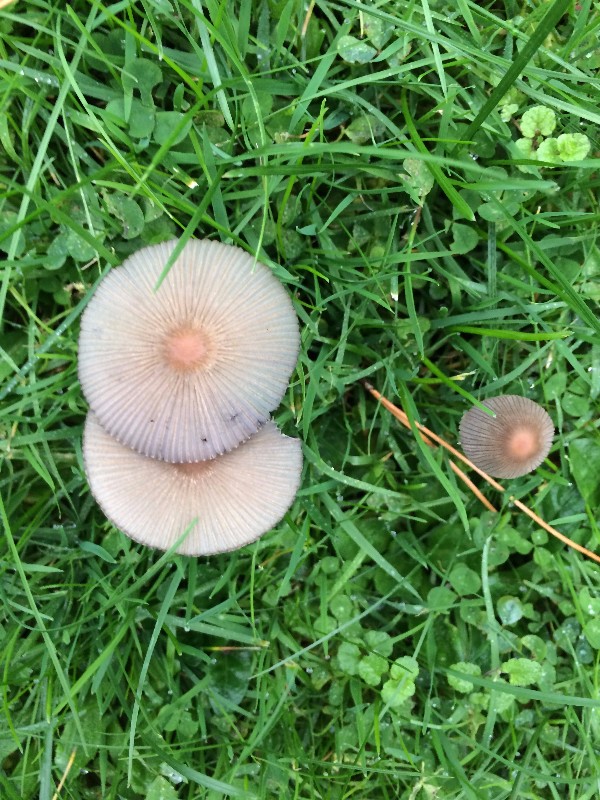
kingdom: Fungi
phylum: Basidiomycota
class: Agaricomycetes
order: Agaricales
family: Psathyrellaceae
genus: Parasola
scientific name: Parasola lactea
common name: glat hjulhat
